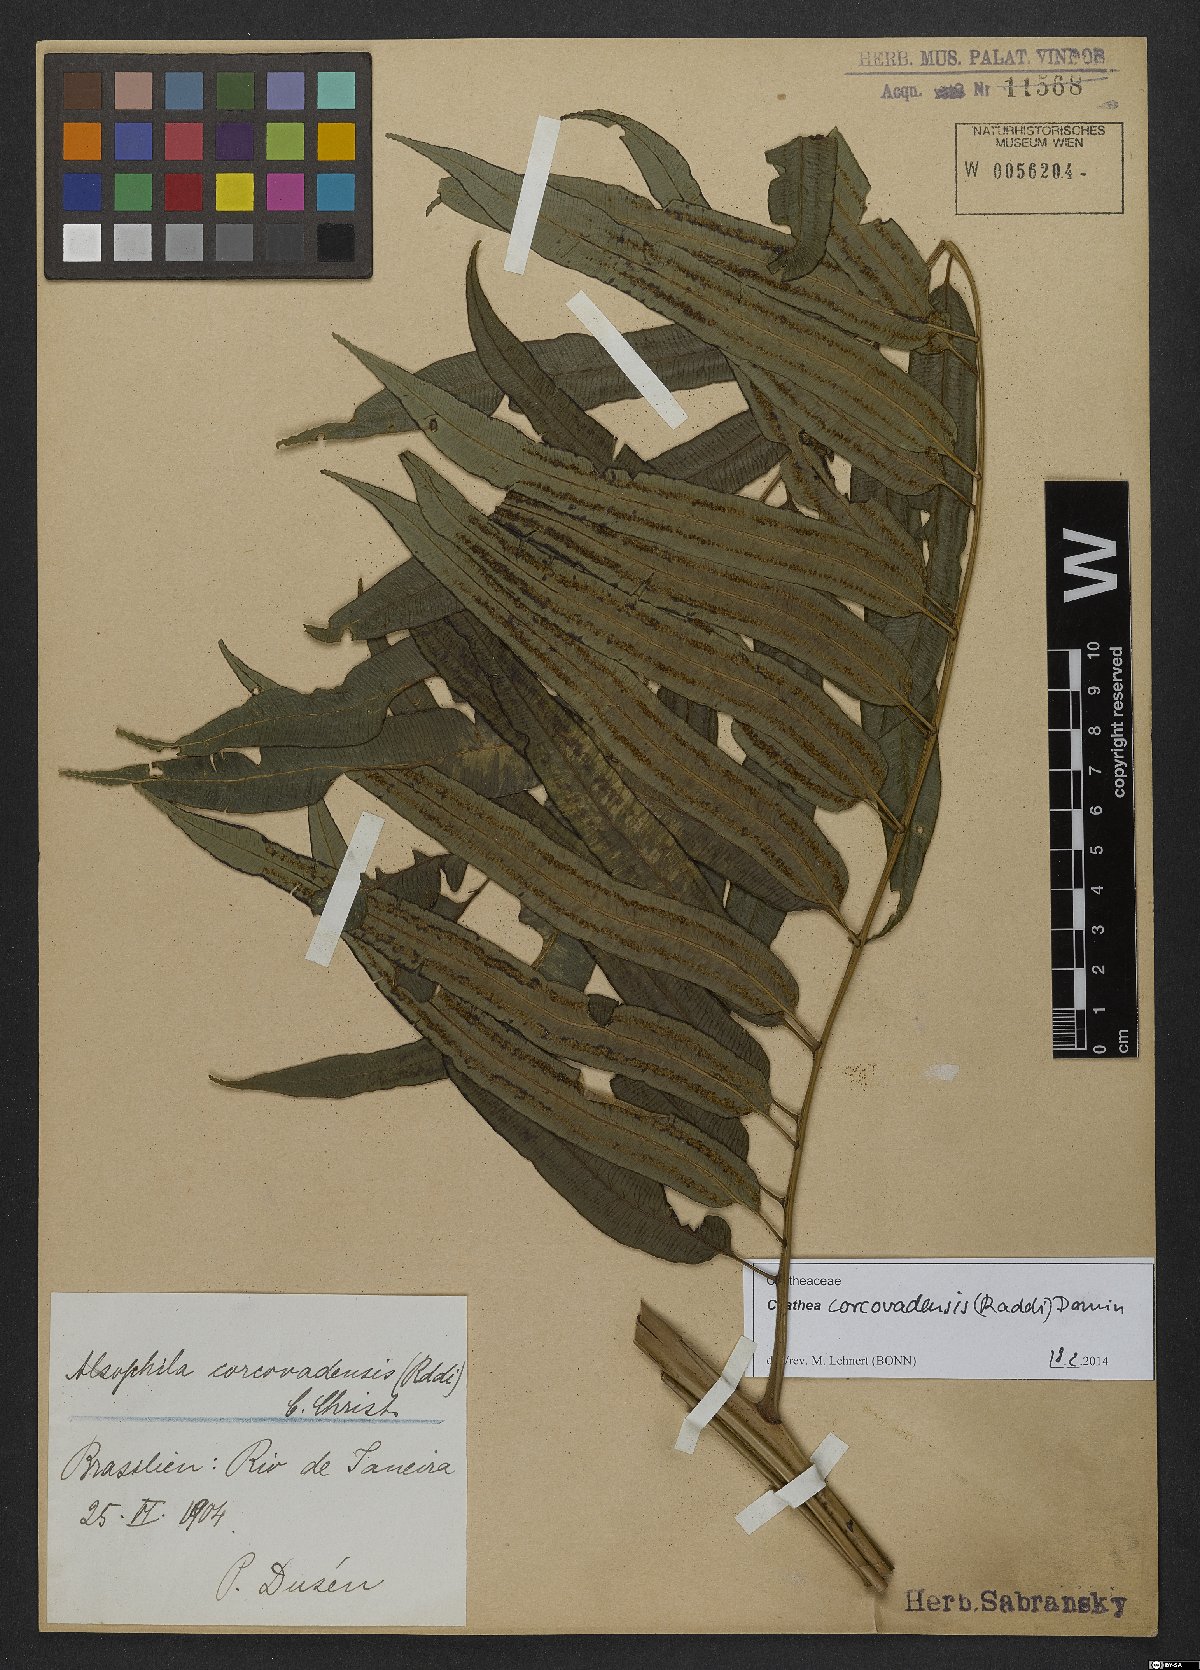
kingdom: Plantae
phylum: Tracheophyta
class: Polypodiopsida
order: Cyatheales
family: Cyatheaceae
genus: Cyathea
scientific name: Cyathea corcovadensis
